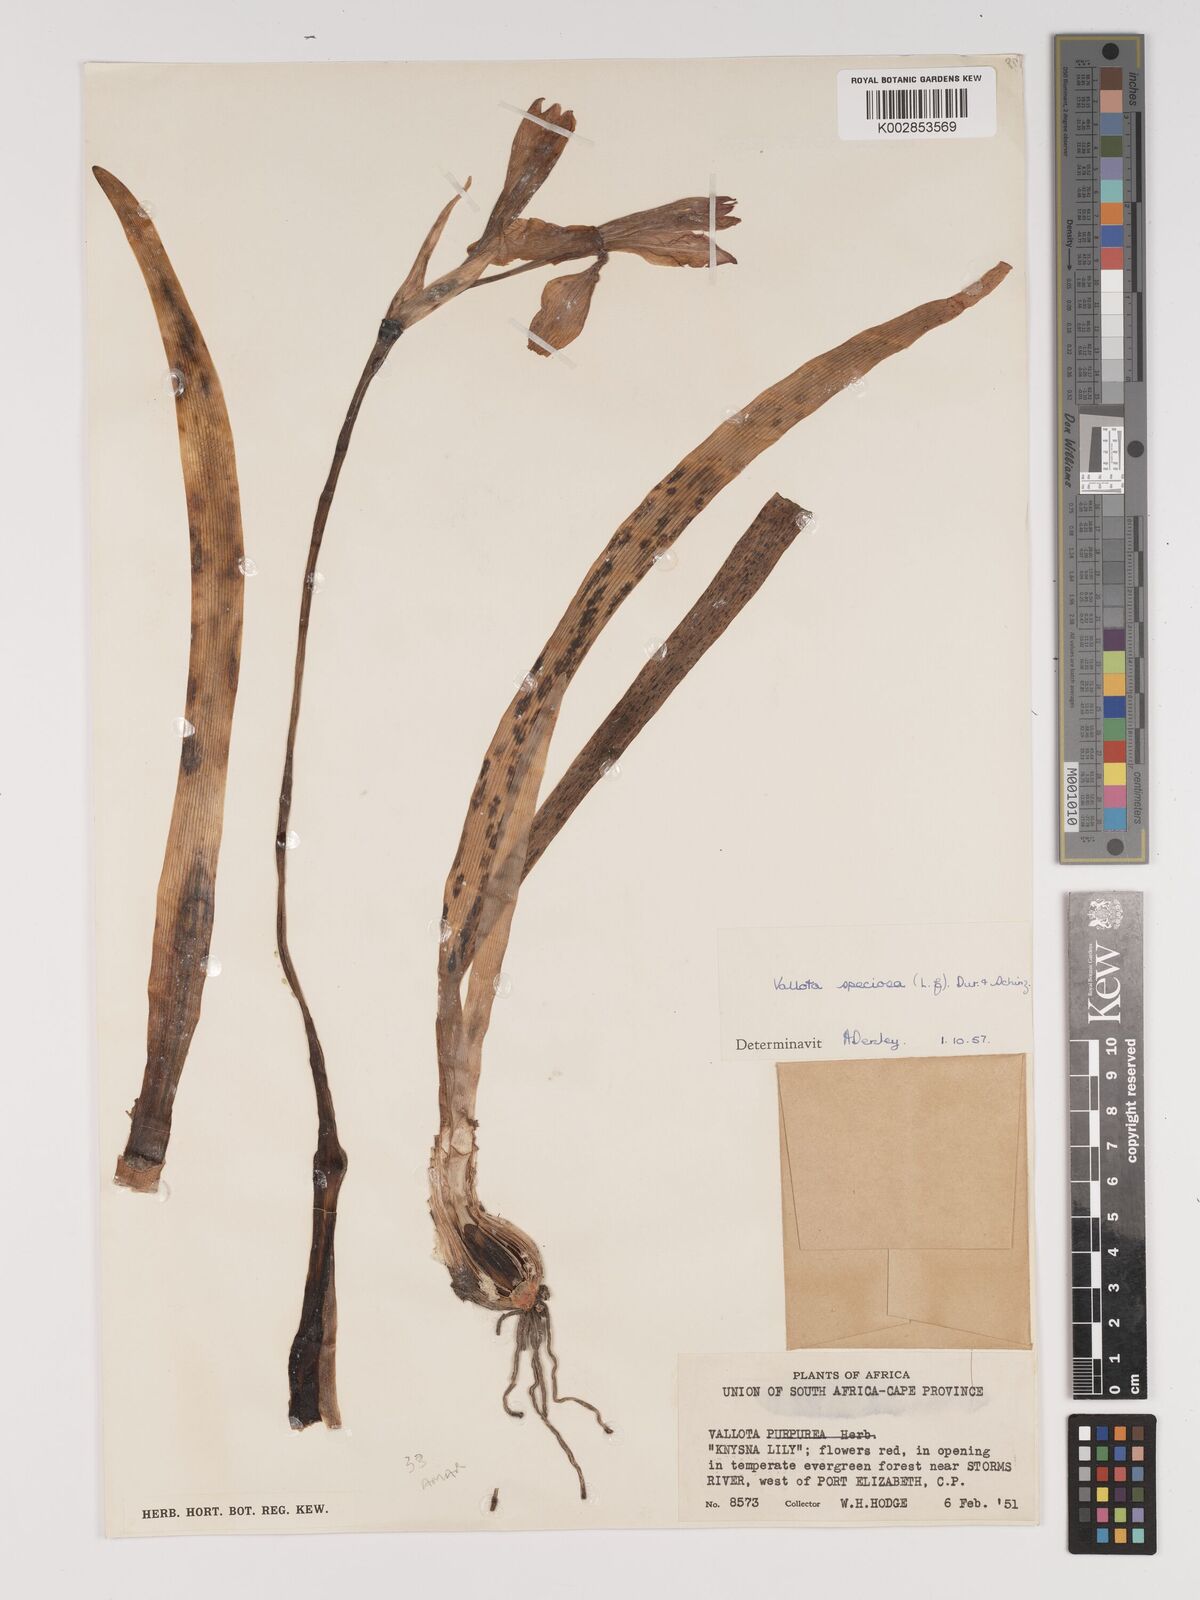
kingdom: Plantae
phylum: Tracheophyta
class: Liliopsida
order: Asparagales
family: Amaryllidaceae
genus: Cyrtanthus
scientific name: Cyrtanthus elatus
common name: Scarborough-lily
